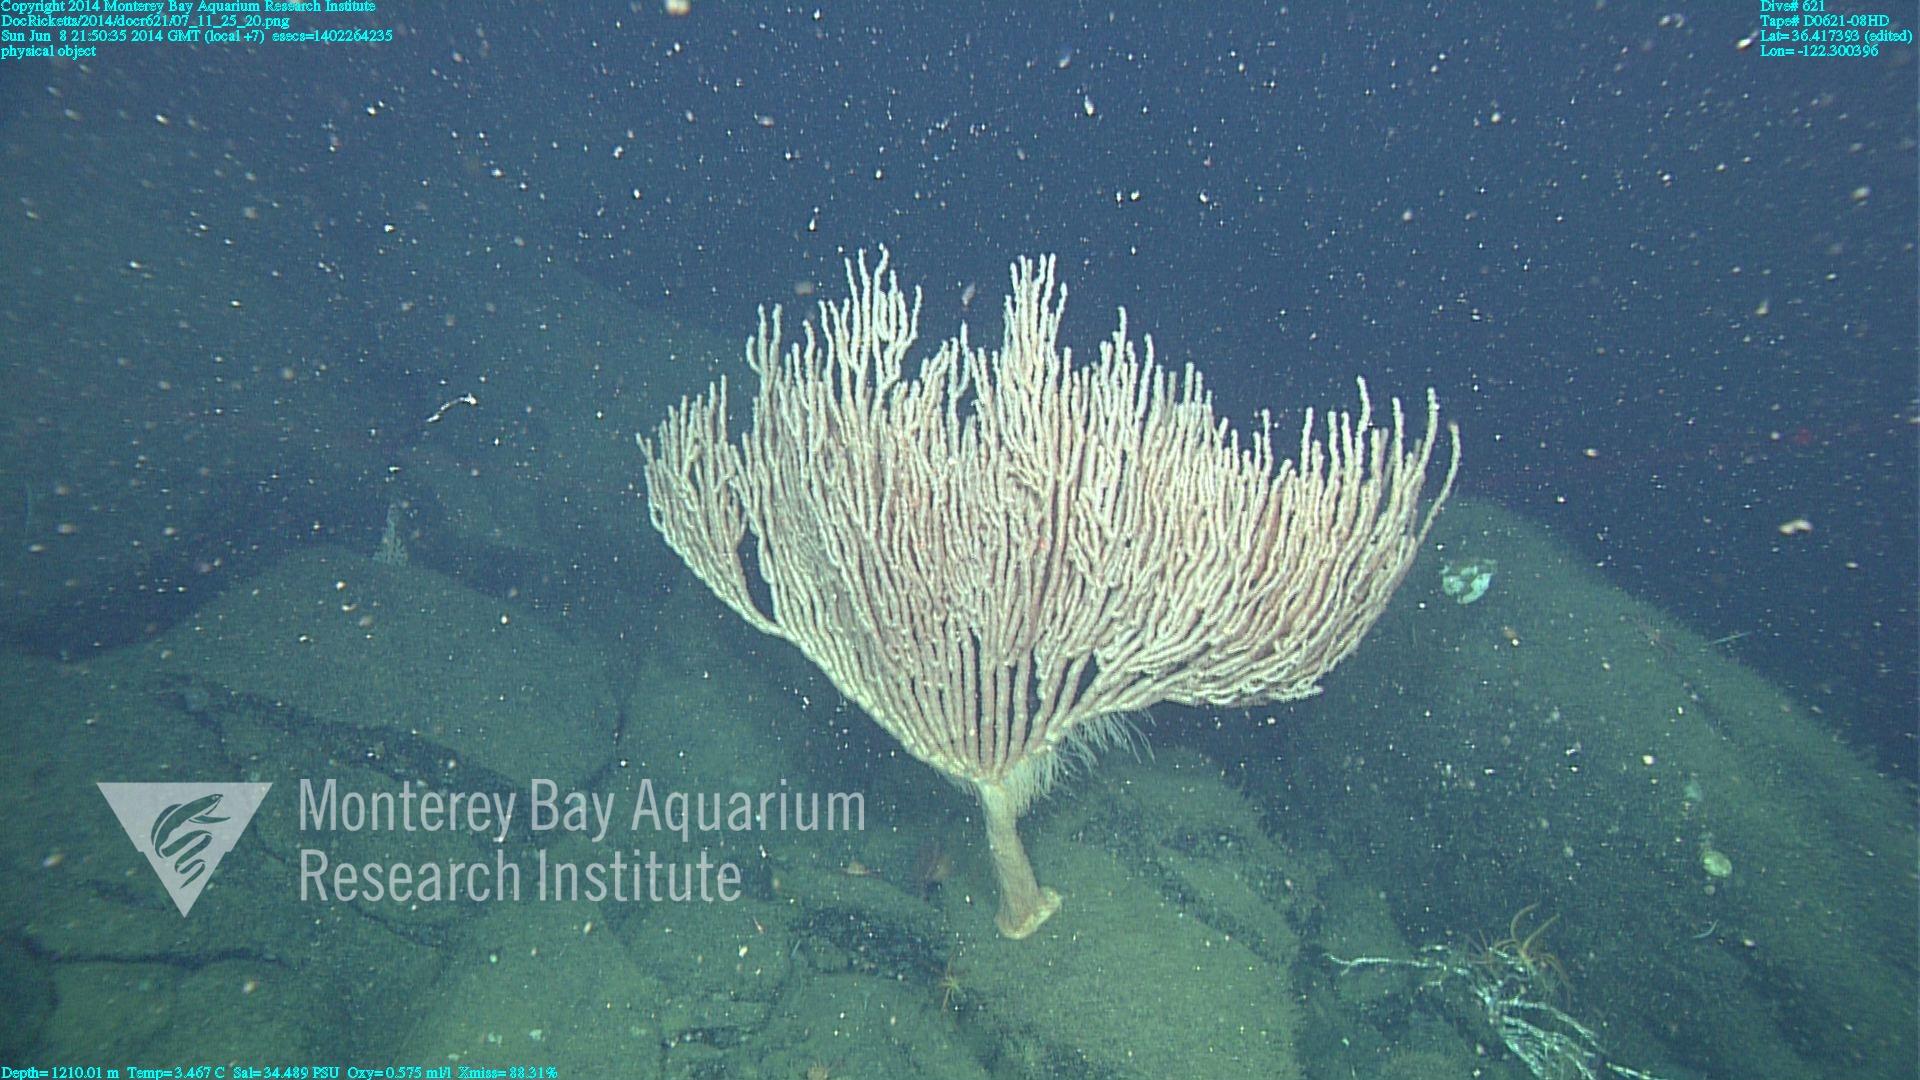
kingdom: Animalia
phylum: Cnidaria
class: Anthozoa
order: Scleralcyonacea
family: Keratoisididae
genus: Isidella
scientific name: Isidella tentaculum
